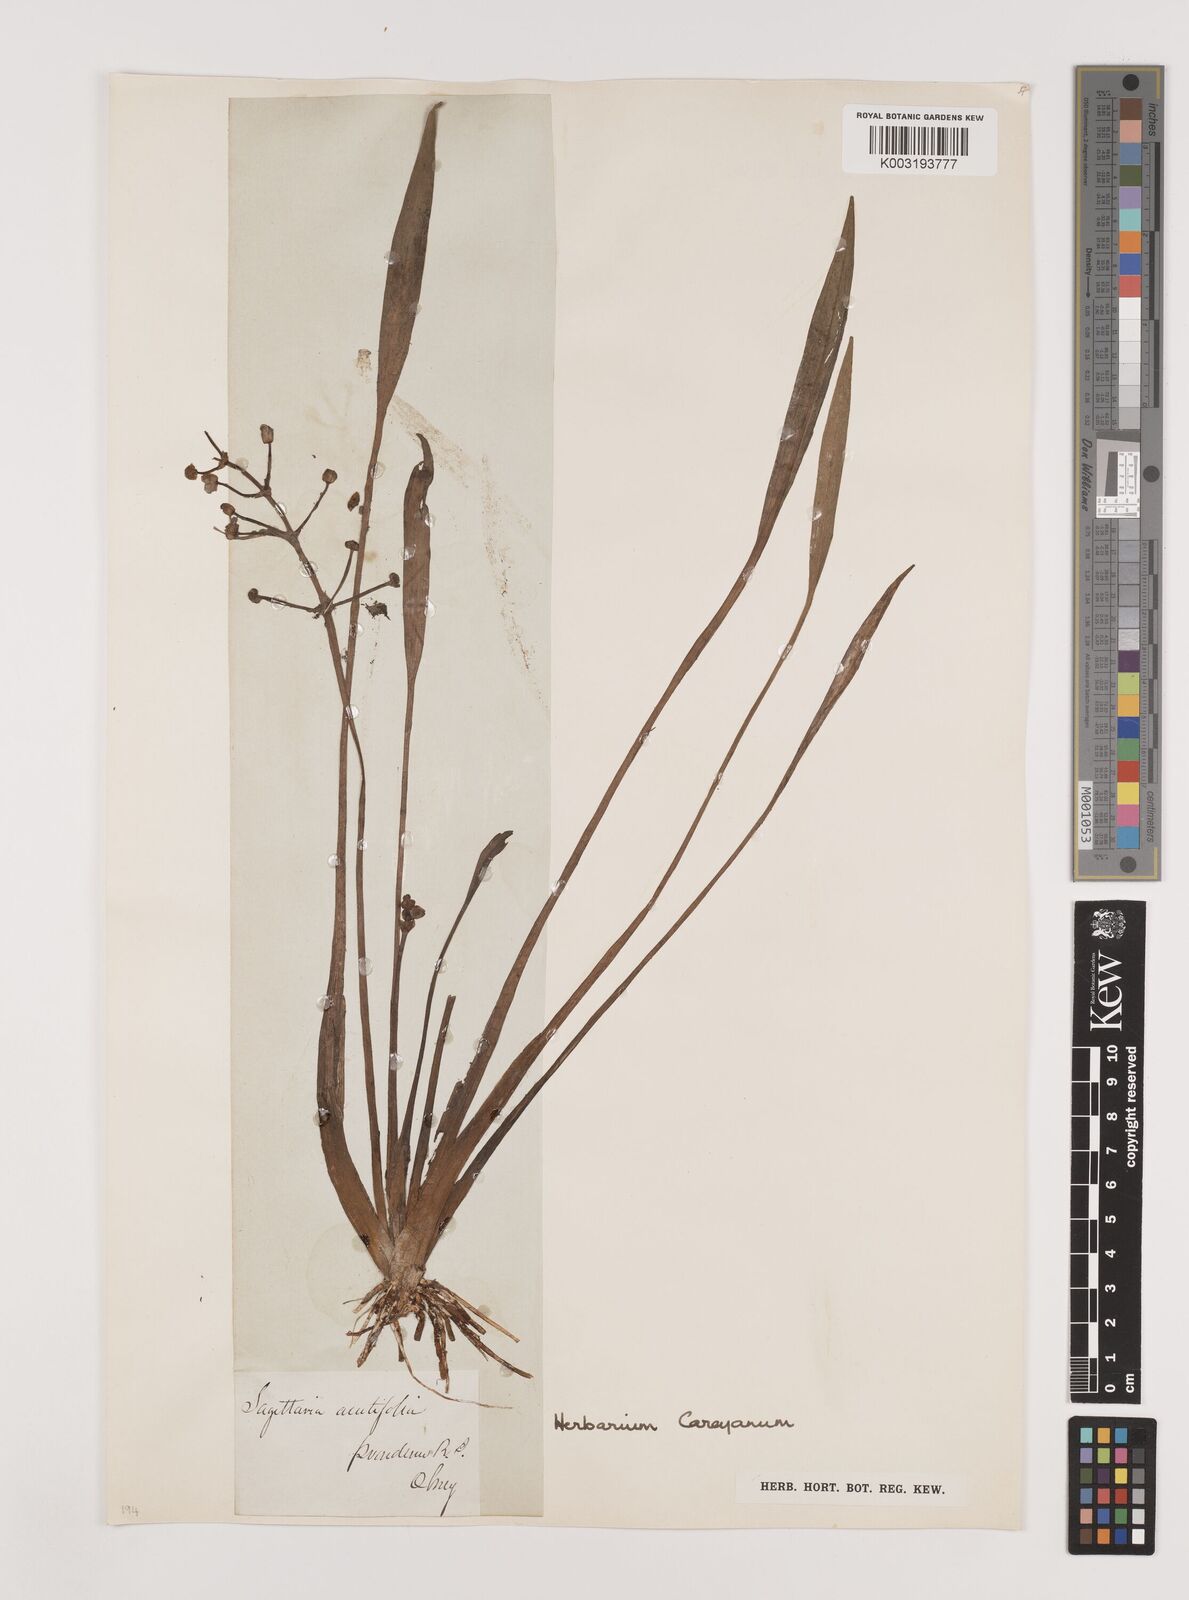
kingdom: Plantae
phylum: Tracheophyta
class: Liliopsida
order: Alismatales
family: Alismataceae
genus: Sagittaria
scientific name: Sagittaria lancifolia
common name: Lance-leaf arrowhead
